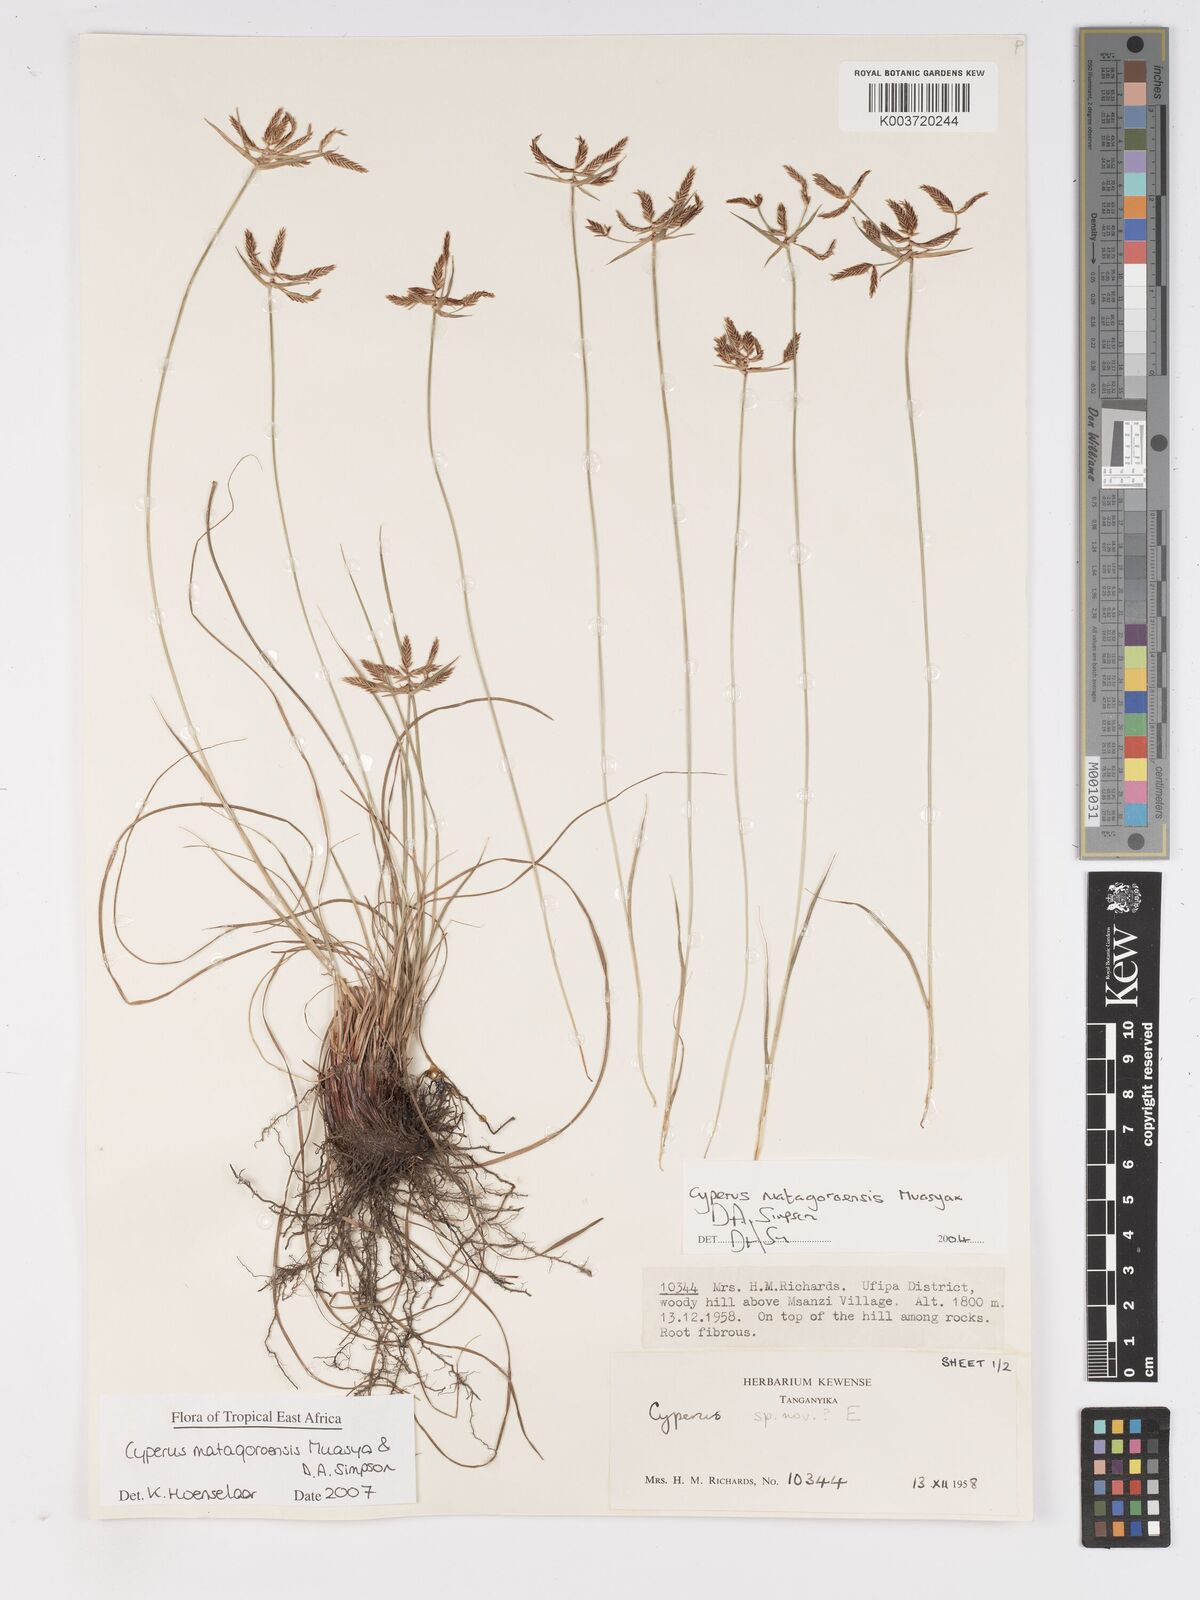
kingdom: Plantae
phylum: Tracheophyta
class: Liliopsida
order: Poales
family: Cyperaceae
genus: Cyperus
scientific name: Cyperus matagoroensis
